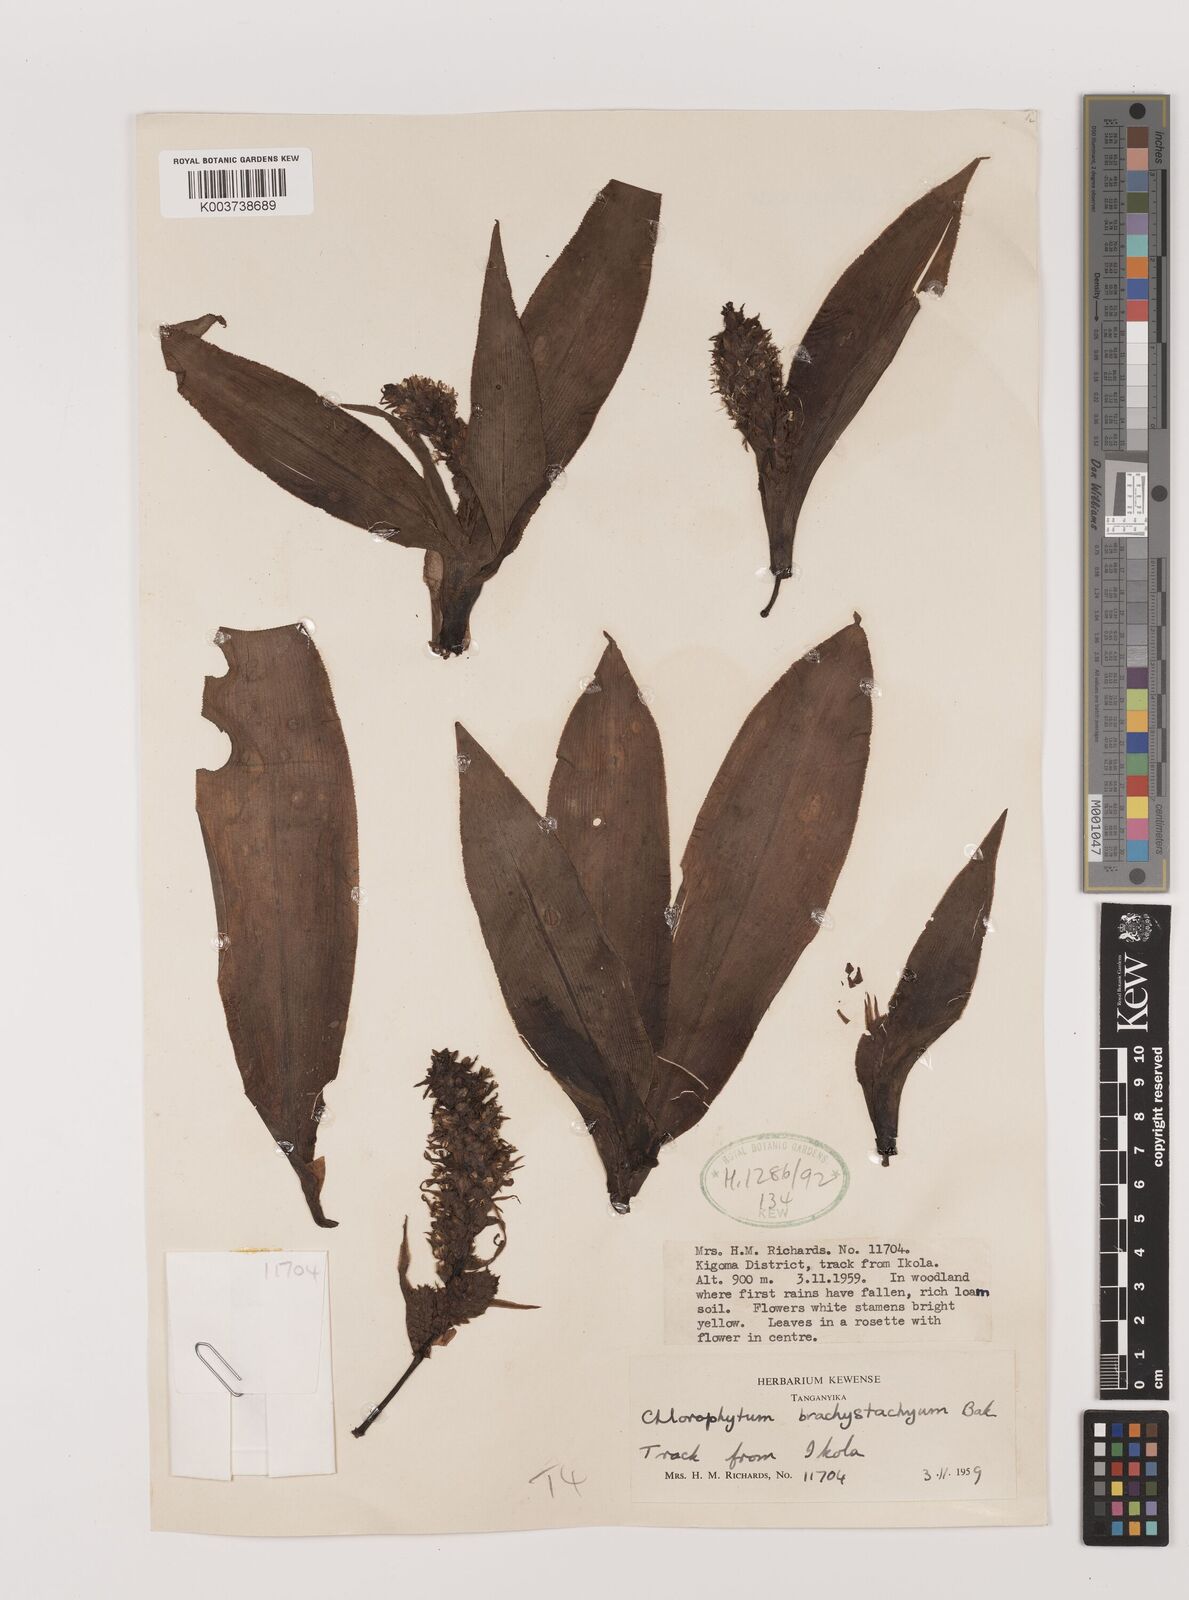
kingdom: Plantae
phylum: Tracheophyta
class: Liliopsida
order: Asparagales
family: Asparagaceae
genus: Chlorophytum
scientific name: Chlorophytum macrophyllum
